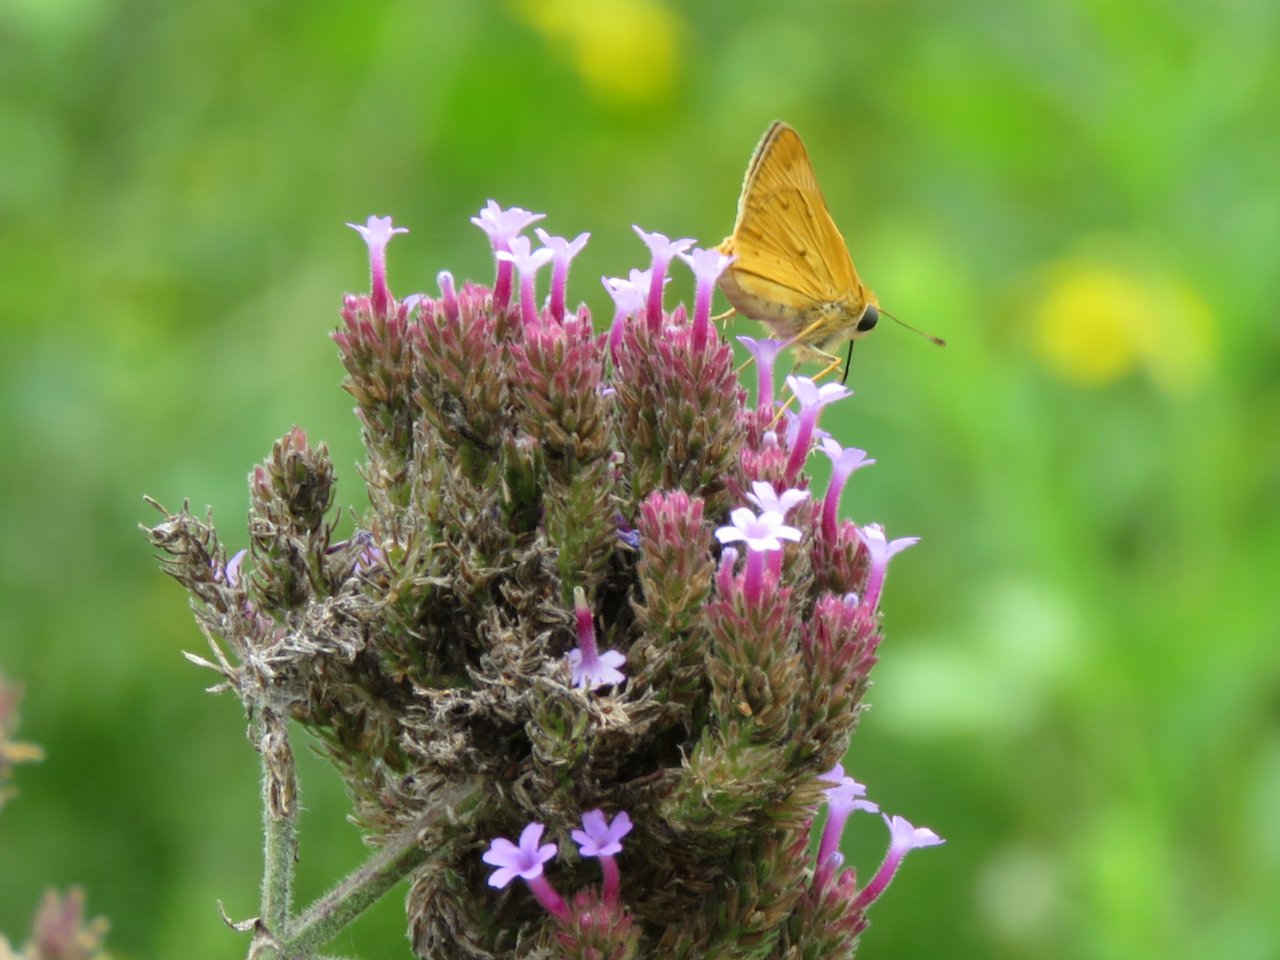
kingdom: Animalia
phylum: Arthropoda
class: Insecta
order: Lepidoptera
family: Hesperiidae
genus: Hylephila
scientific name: Hylephila phyleus
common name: Fiery Skipper
